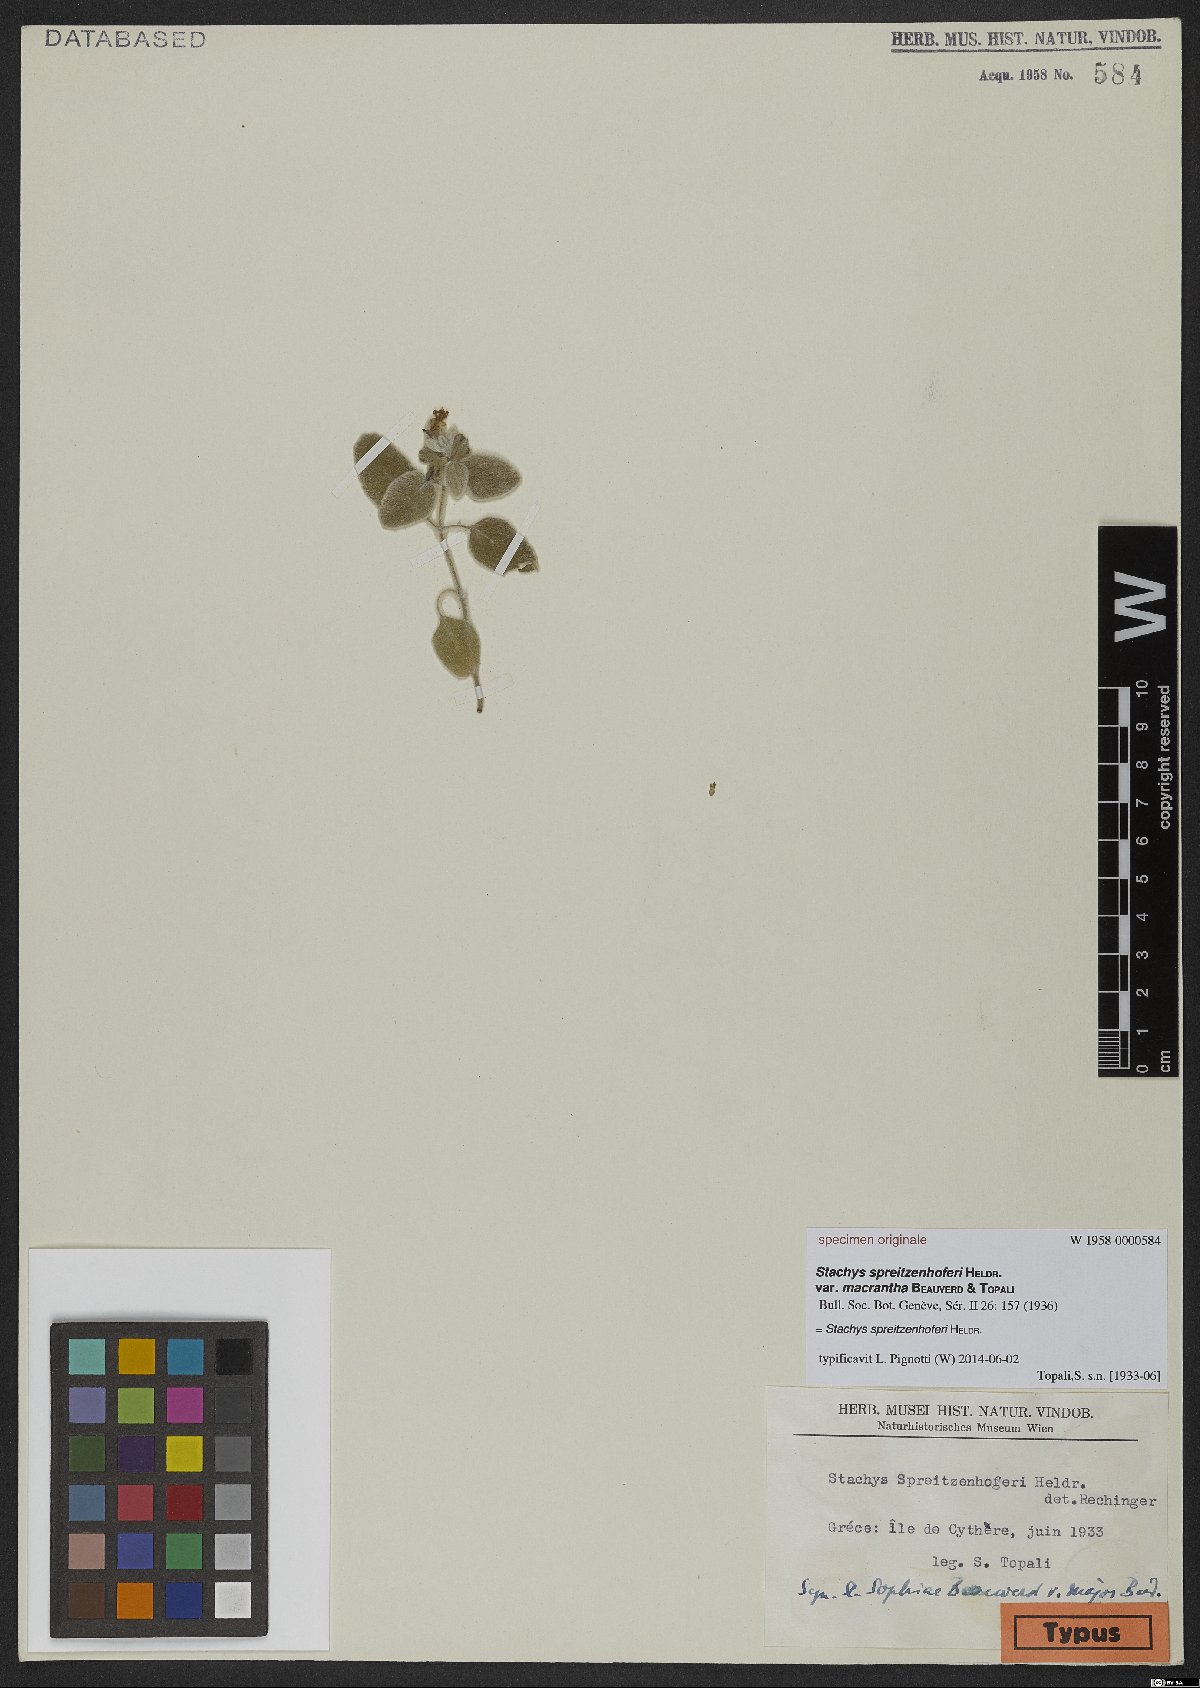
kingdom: Plantae
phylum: Tracheophyta
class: Magnoliopsida
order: Lamiales
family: Lamiaceae
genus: Stachys
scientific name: Stachys spreitzenhoferi
